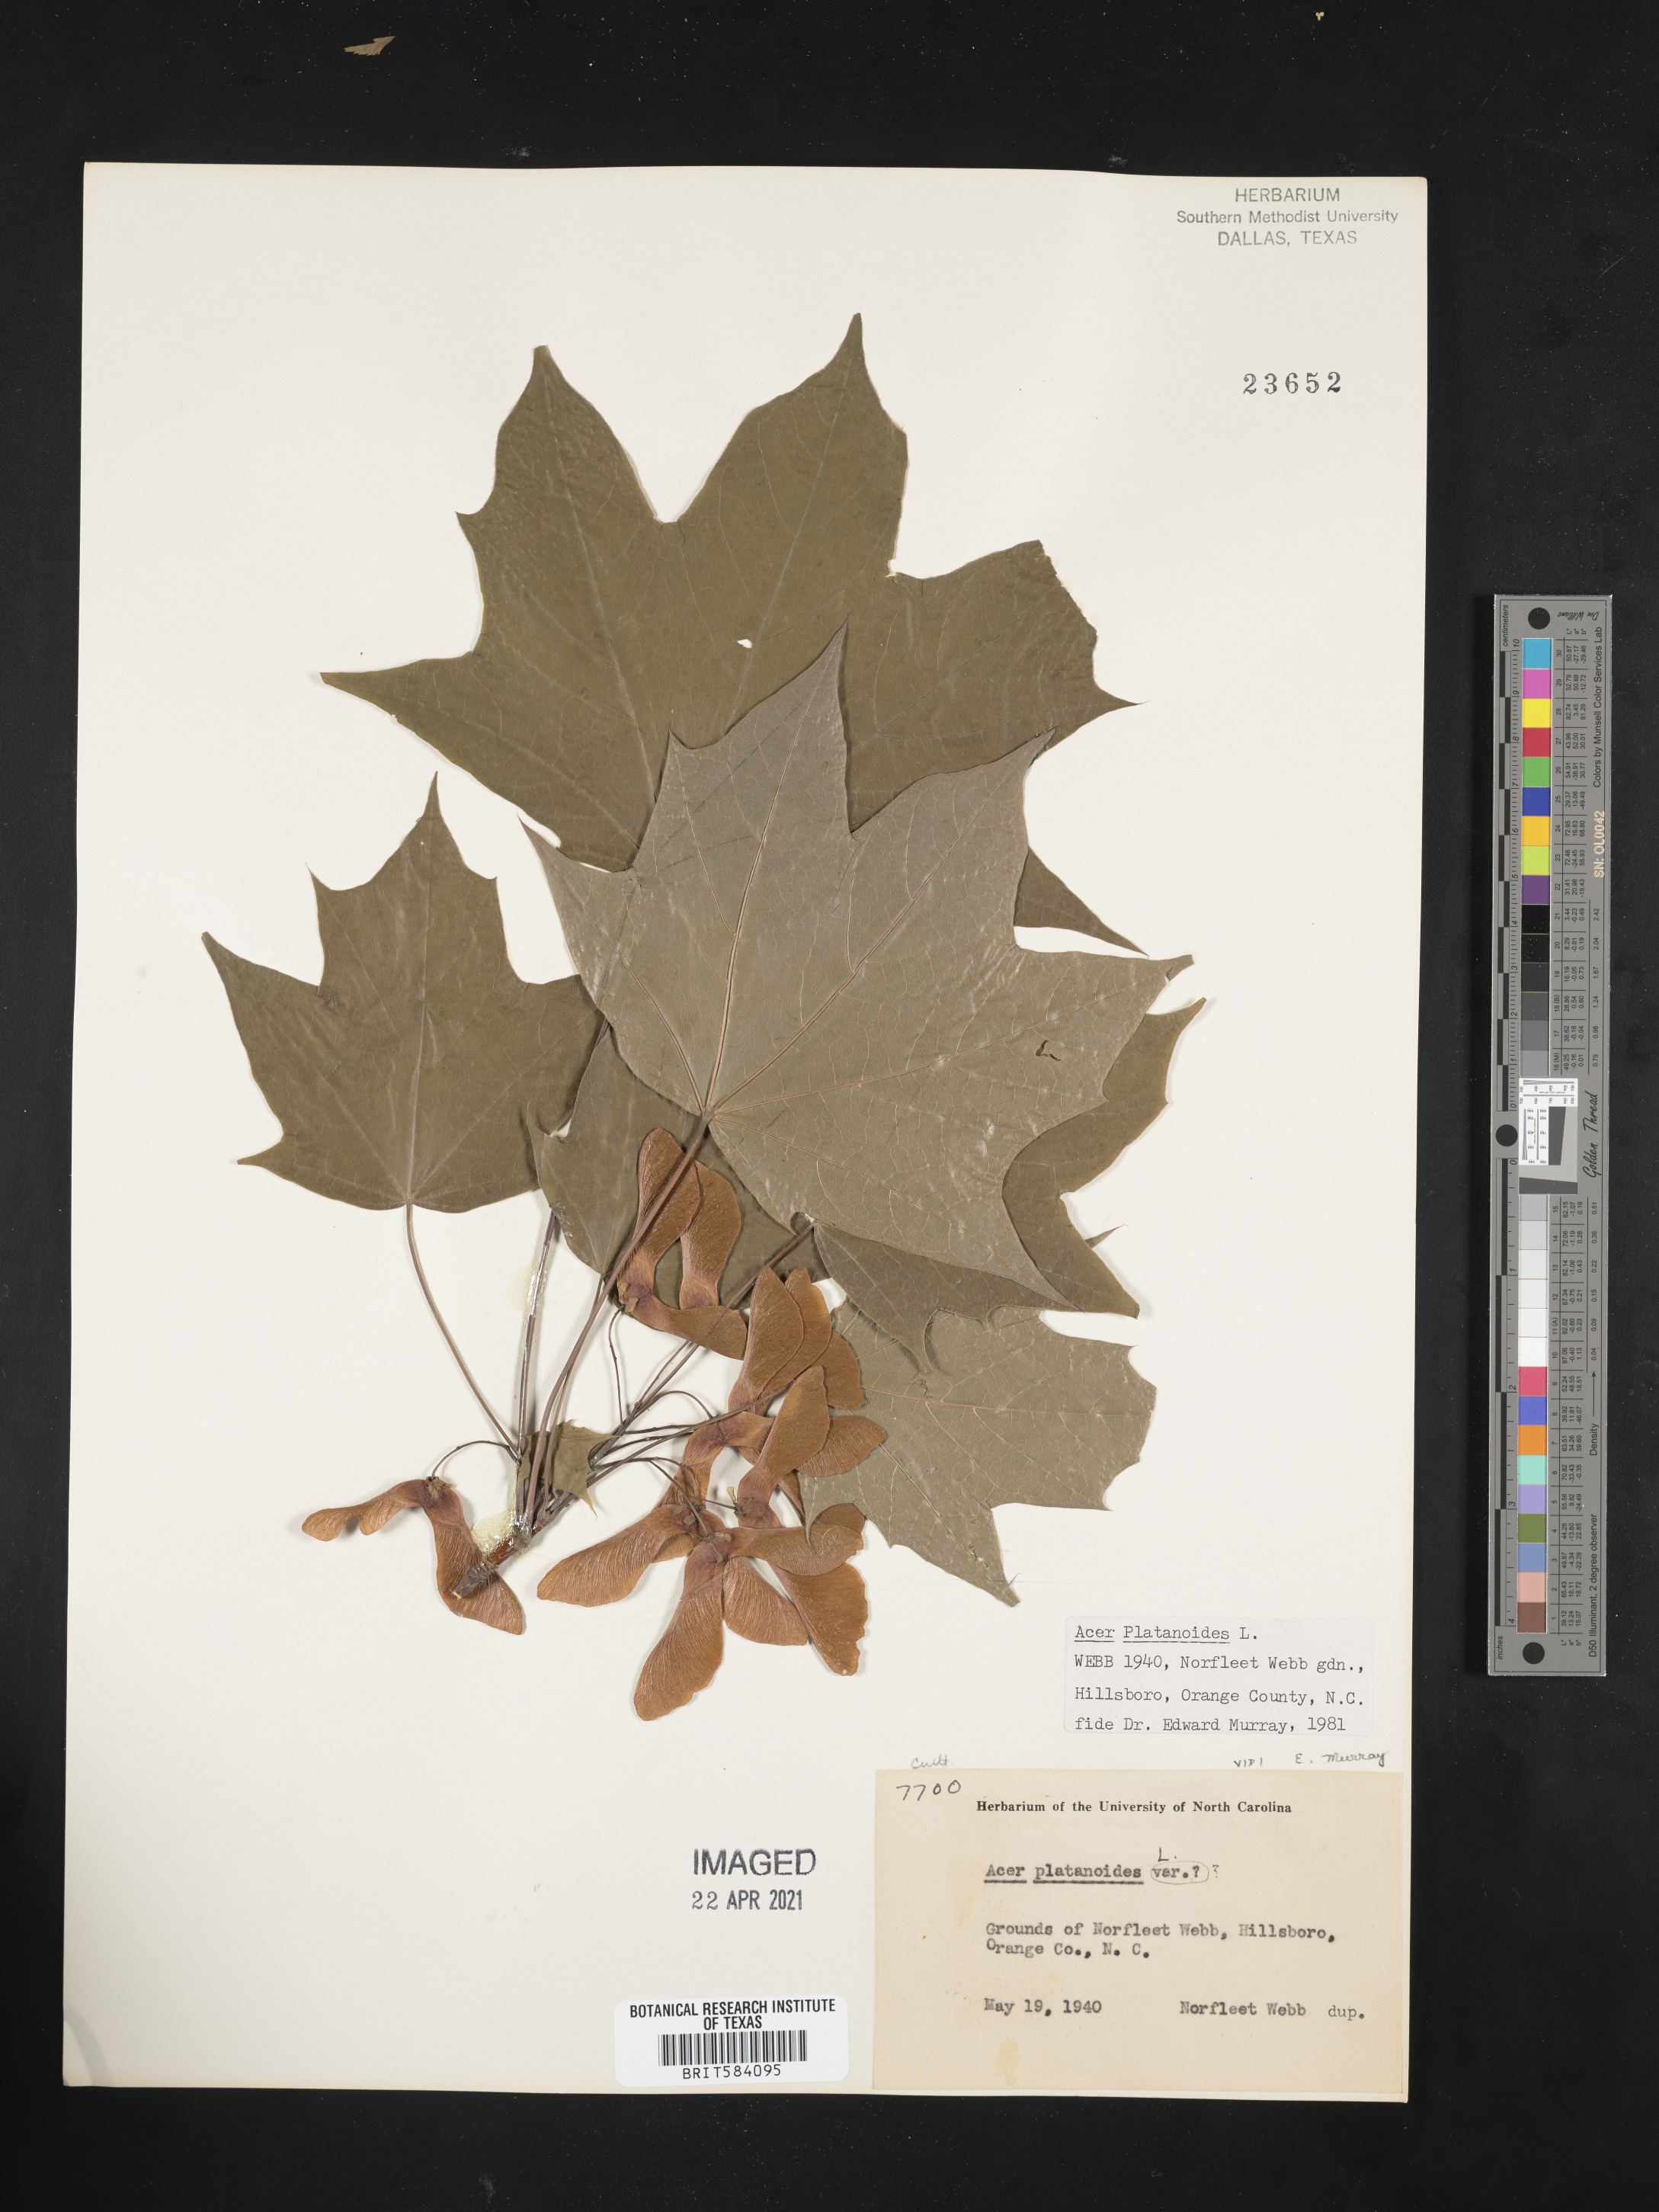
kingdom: Plantae
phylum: Tracheophyta
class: Magnoliopsida
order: Sapindales
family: Sapindaceae
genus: Acer
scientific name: Acer platanoides
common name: Norway maple
